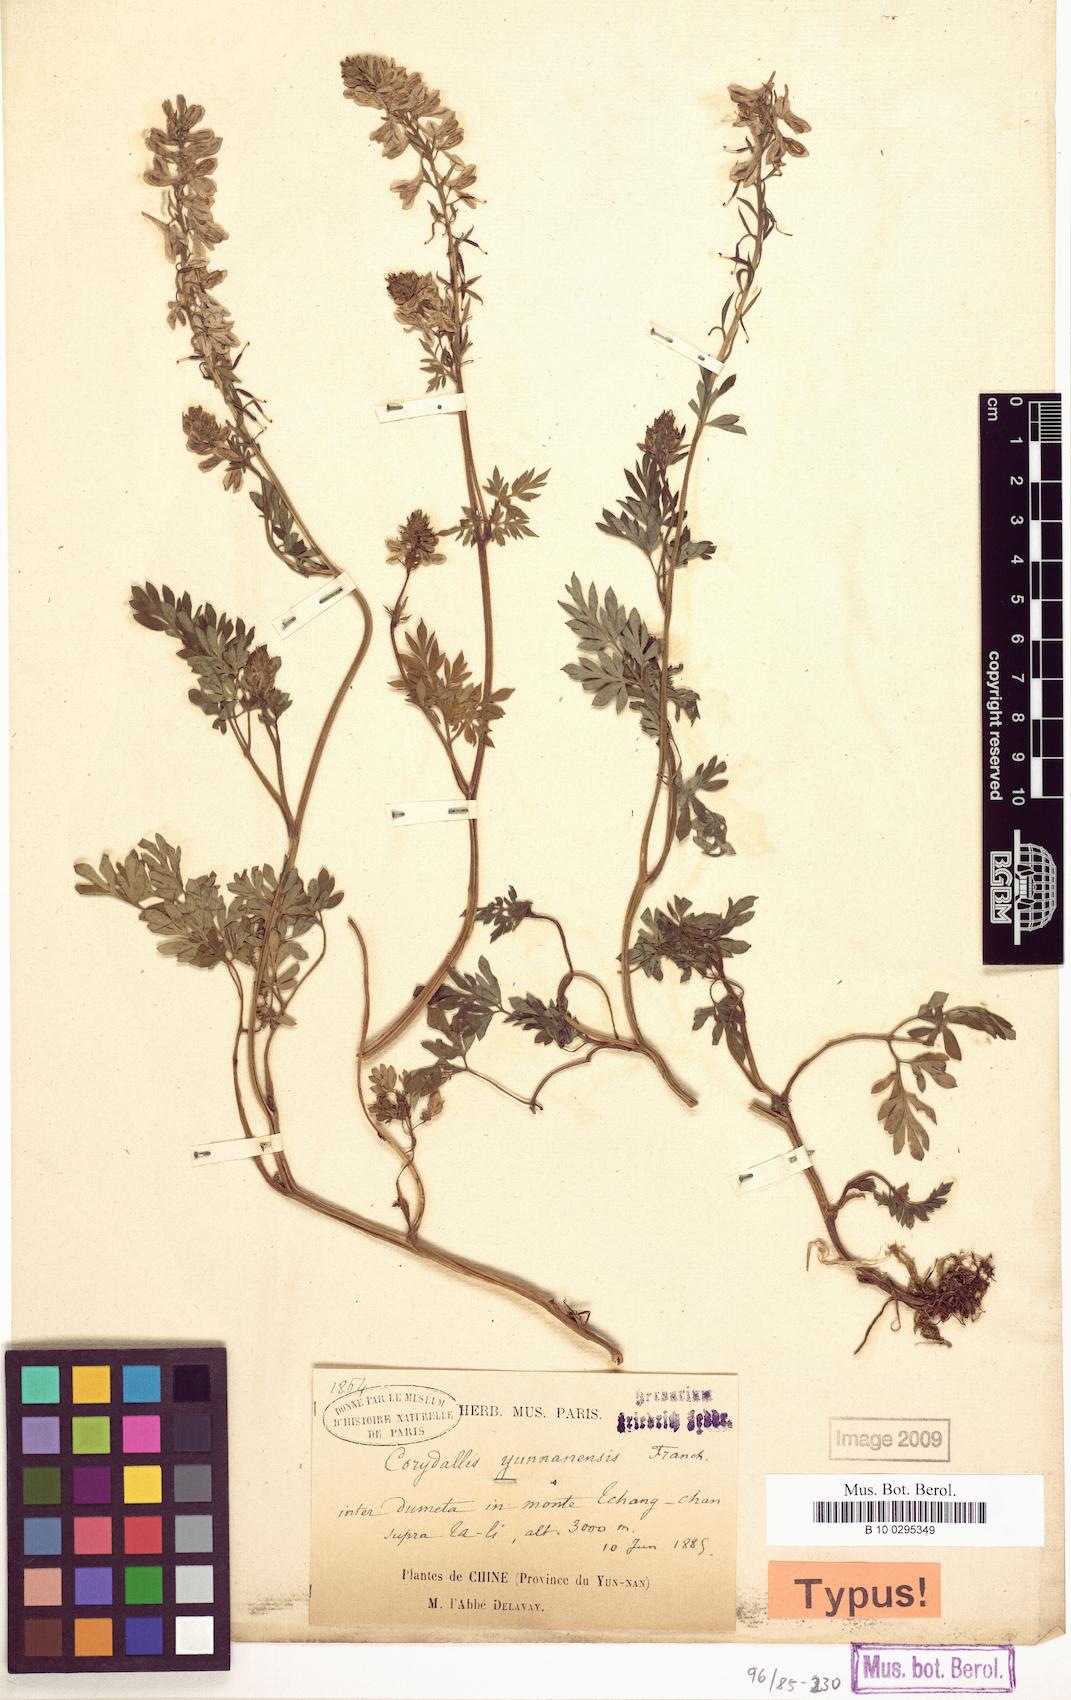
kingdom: Plantae
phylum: Tracheophyta
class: Magnoliopsida
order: Ranunculales
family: Papaveraceae
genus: Corydalis
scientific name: Corydalis yunnanensis
